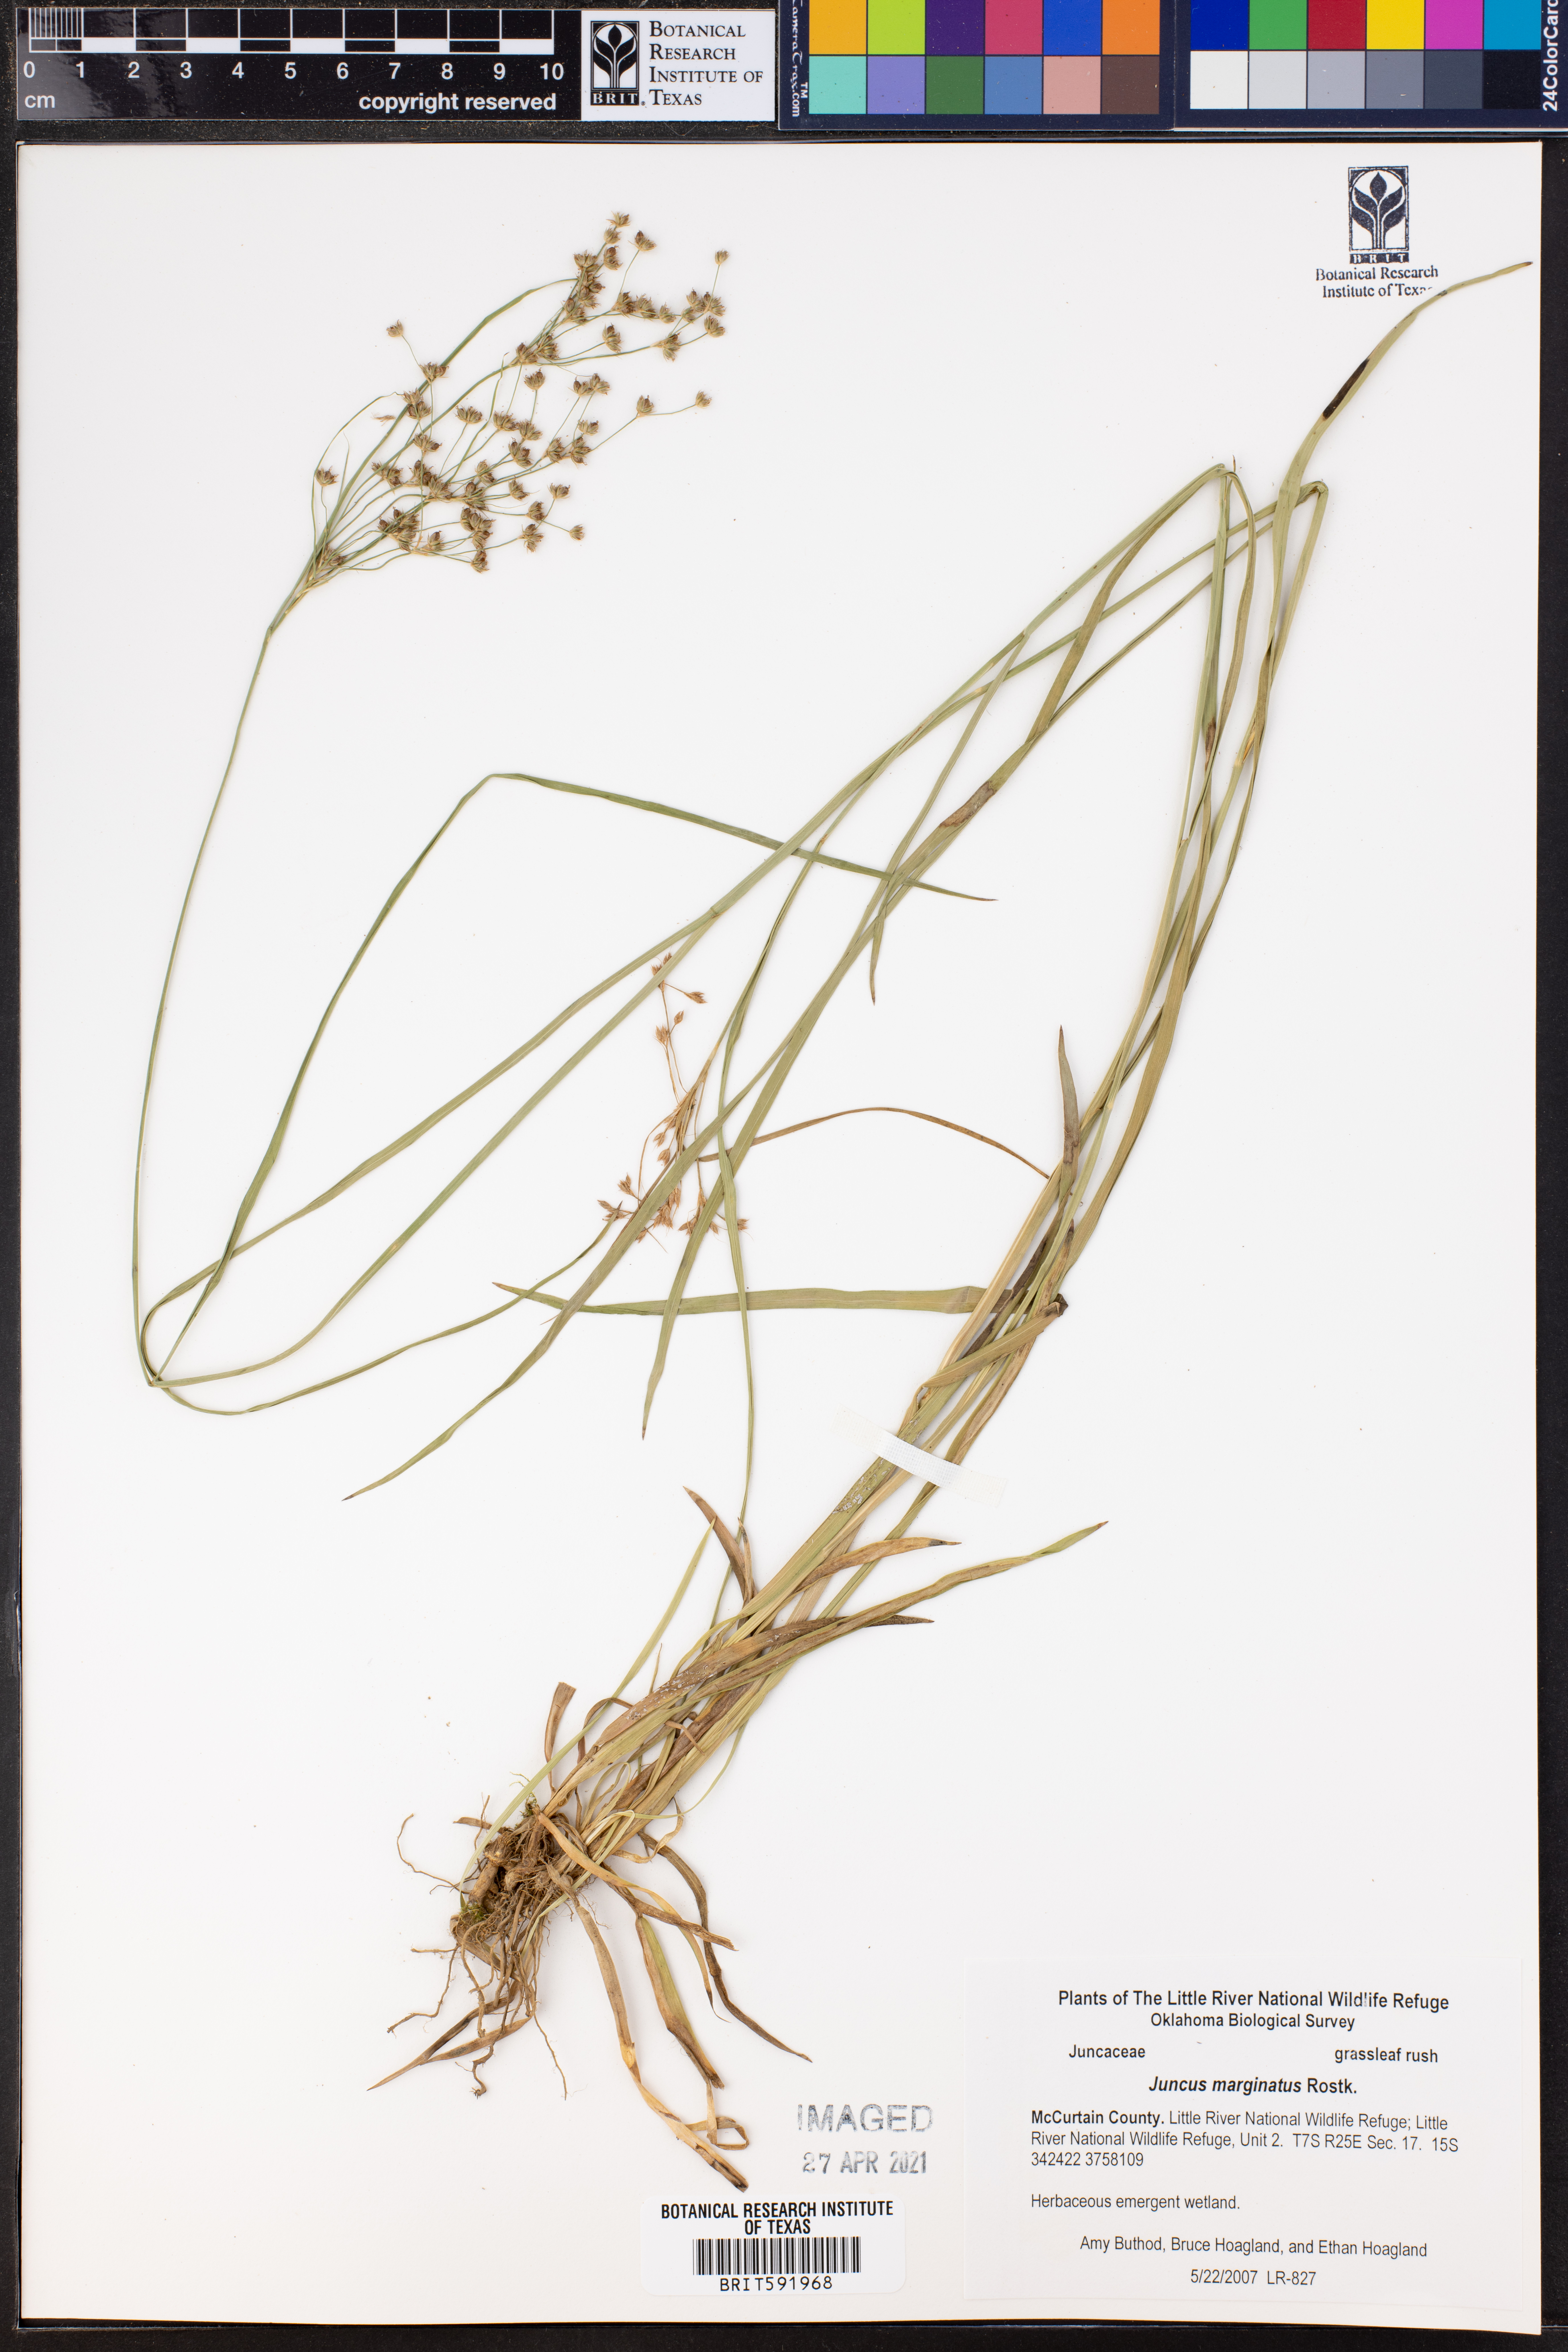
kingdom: Plantae
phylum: Tracheophyta
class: Liliopsida
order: Poales
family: Juncaceae
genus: Juncus
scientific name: Juncus marginatus
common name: Grass-leaf rush
